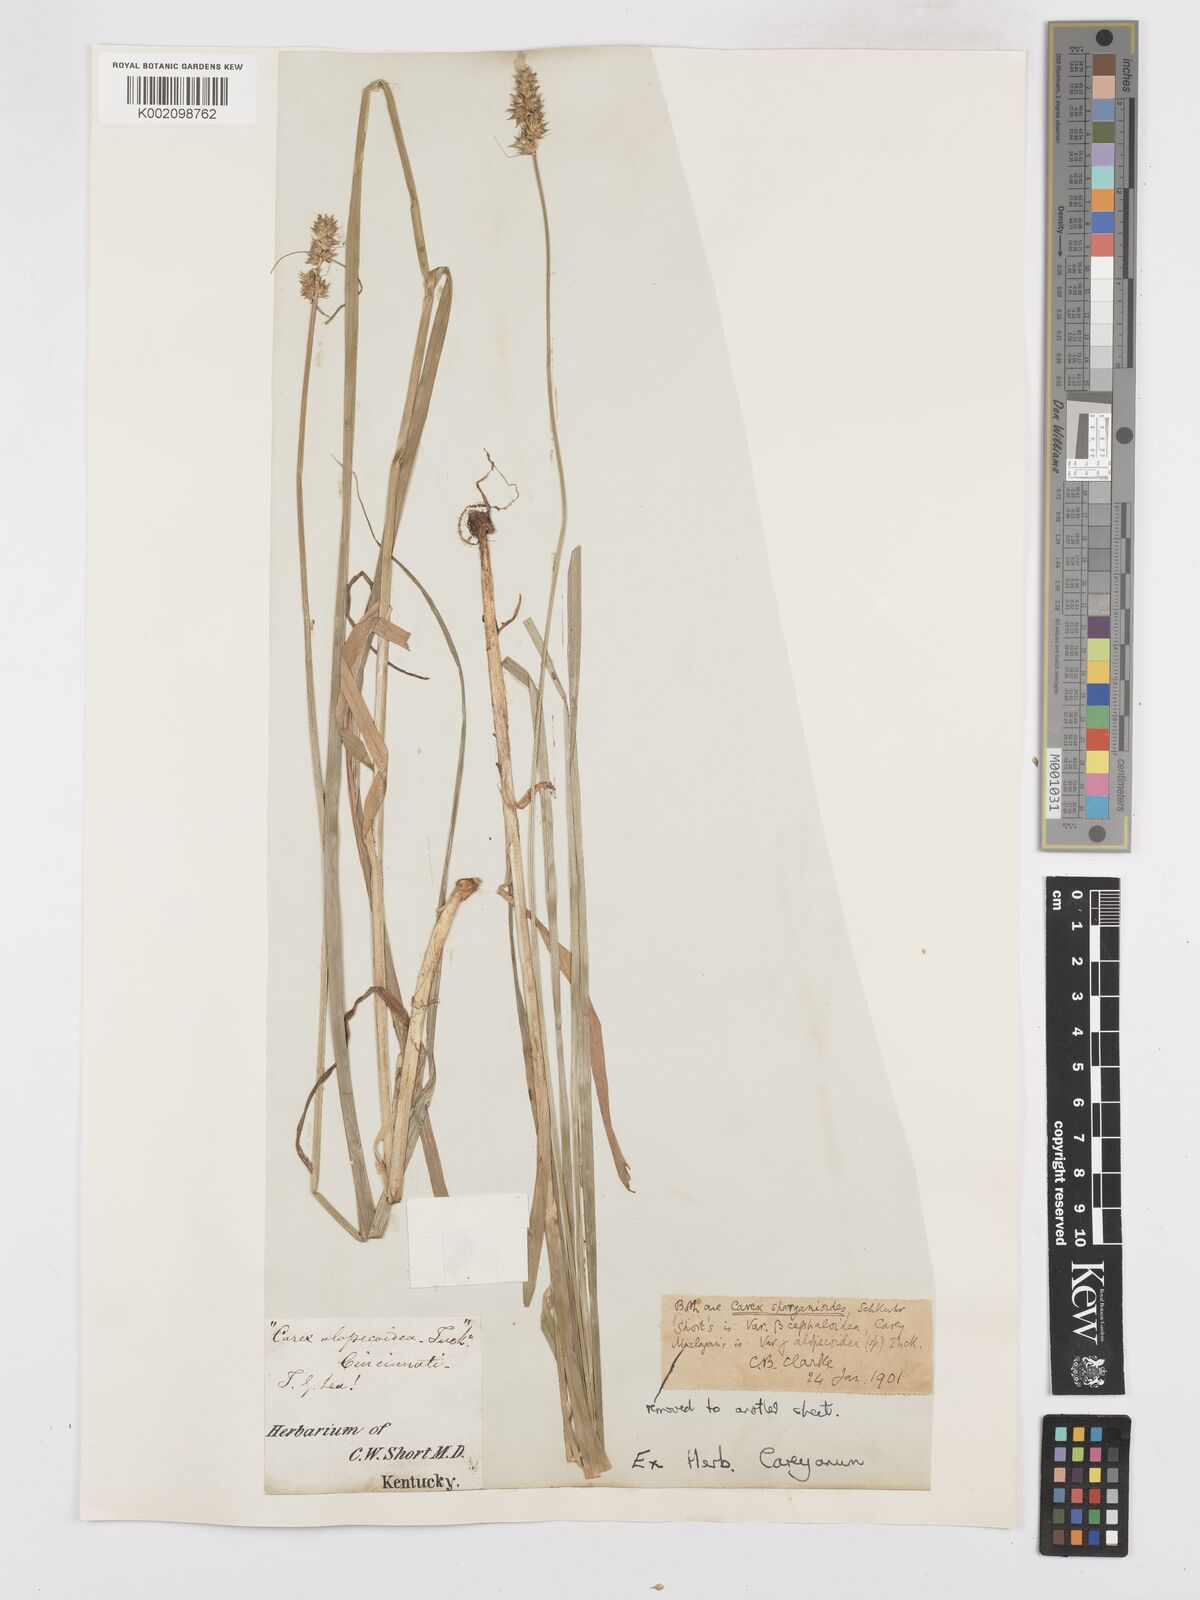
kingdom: Plantae
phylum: Tracheophyta
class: Liliopsida
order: Poales
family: Cyperaceae
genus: Carex
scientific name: Carex sparganioides
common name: Burreed sedge
